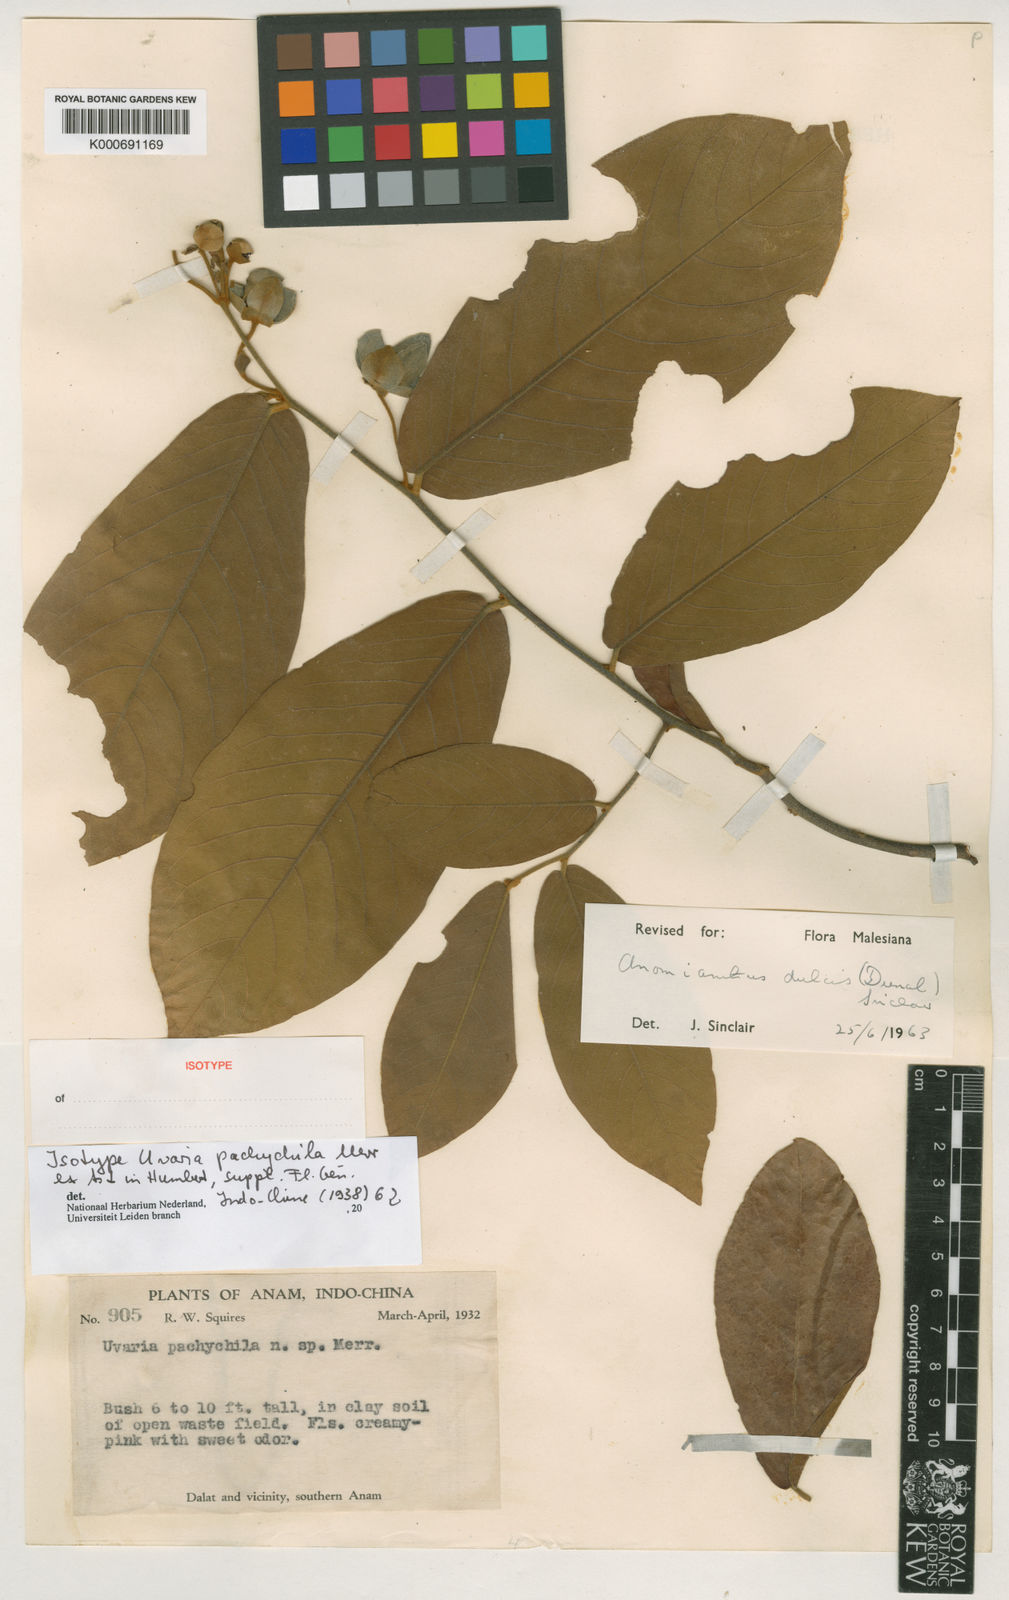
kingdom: Plantae
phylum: Tracheophyta
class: Magnoliopsida
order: Magnoliales
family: Annonaceae
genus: Uvaria
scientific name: Uvaria
